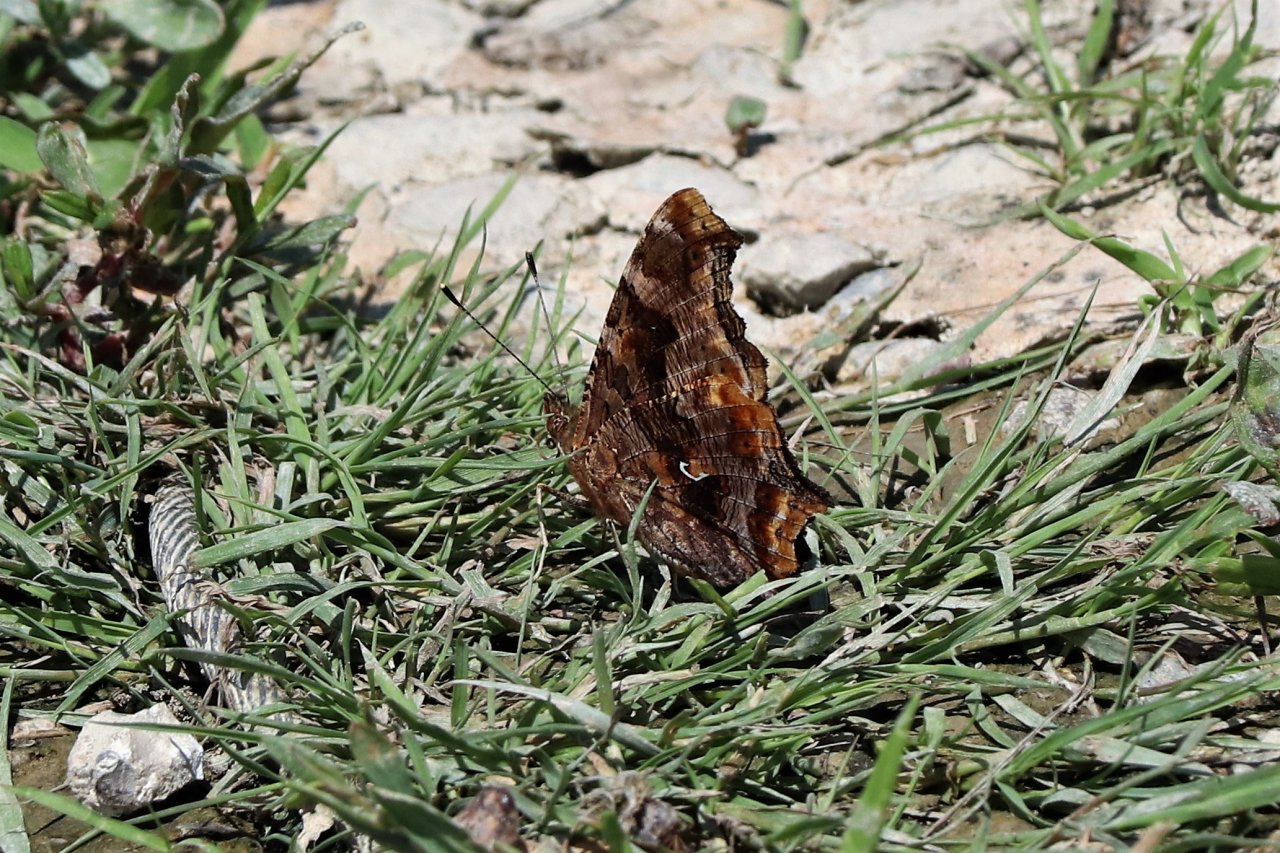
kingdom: Animalia
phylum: Arthropoda
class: Insecta
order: Lepidoptera
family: Nymphalidae
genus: Polygonia
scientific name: Polygonia comma
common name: Eastern Comma
